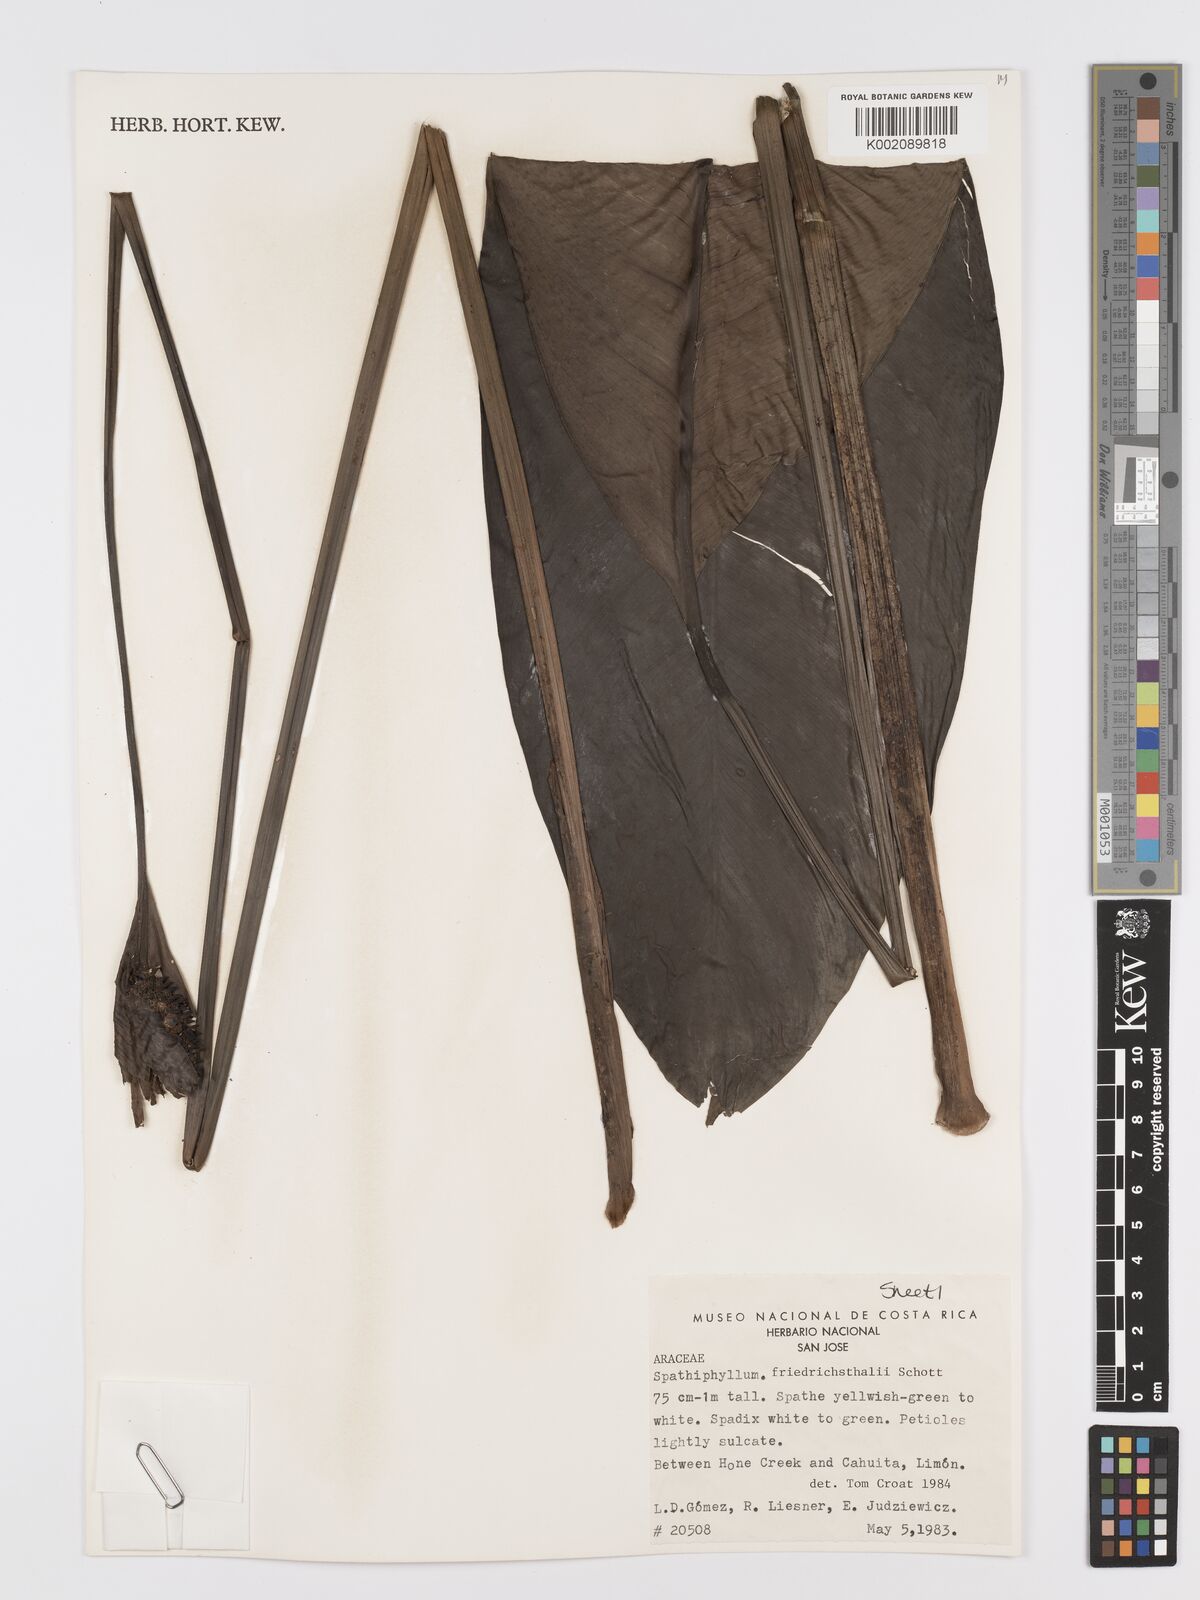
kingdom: Plantae
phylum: Tracheophyta
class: Liliopsida
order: Alismatales
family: Araceae
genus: Spathiphyllum
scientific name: Spathiphyllum friedrichsthalii
